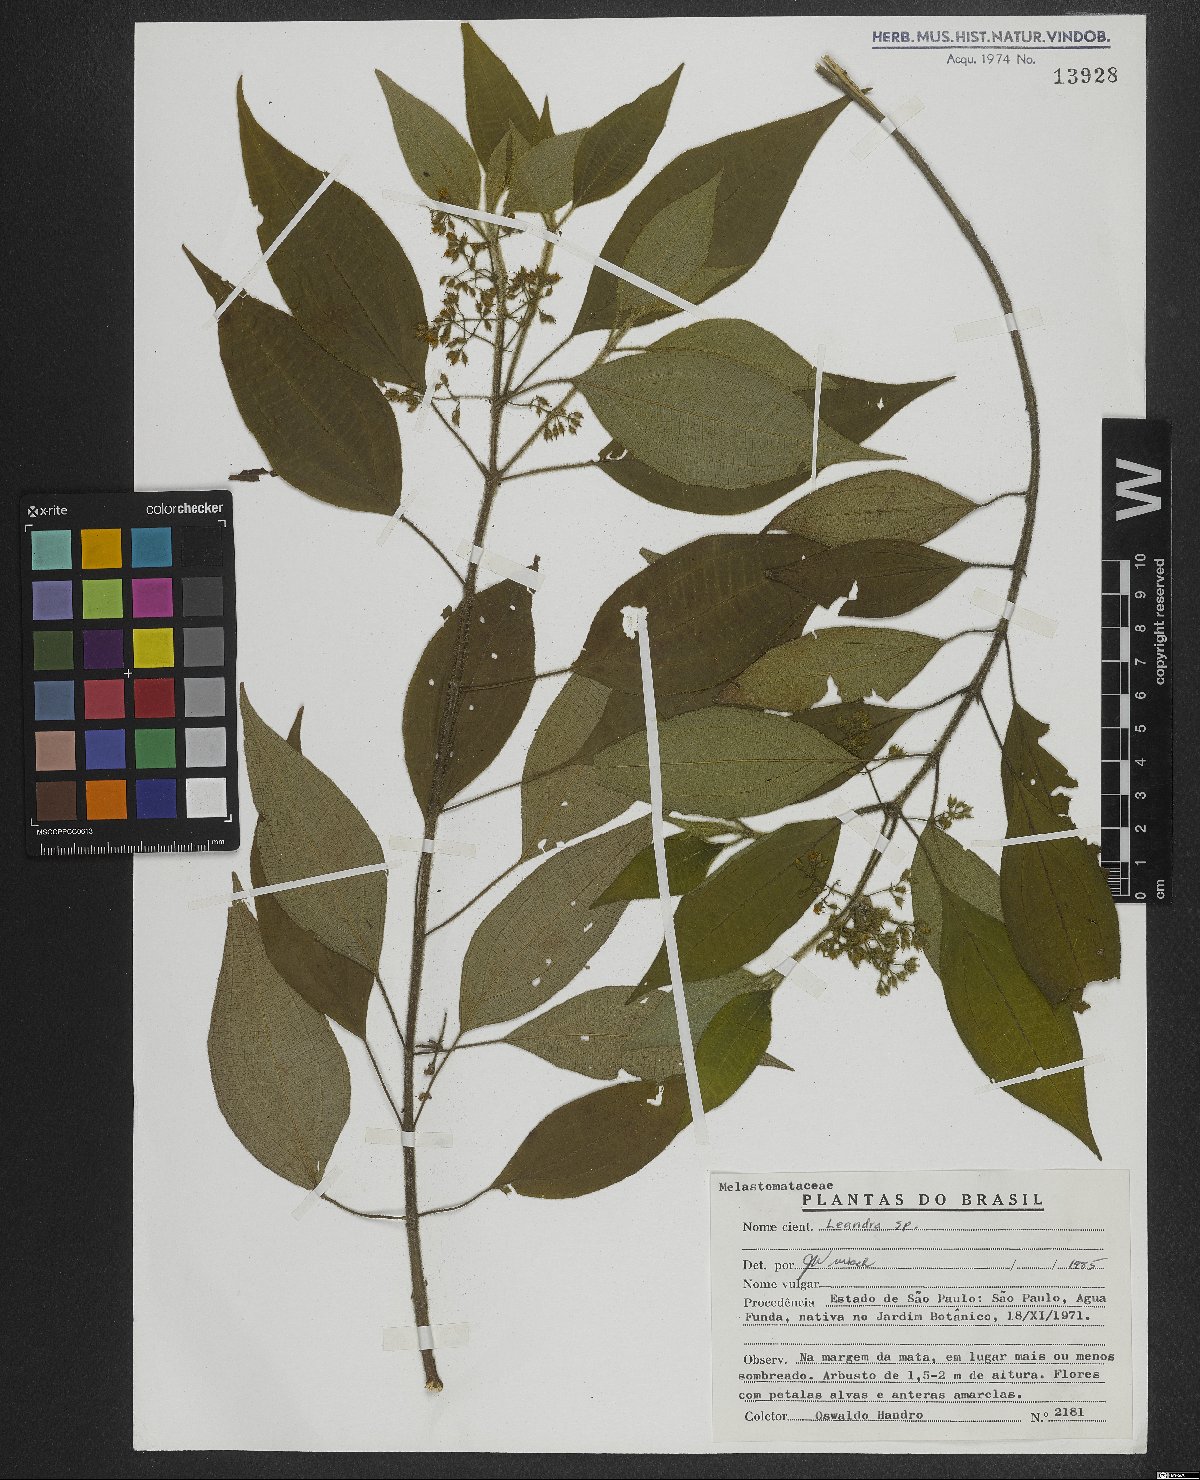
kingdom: Plantae
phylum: Tracheophyta
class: Magnoliopsida
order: Myrtales
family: Melastomataceae
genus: Miconia
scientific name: Miconia
